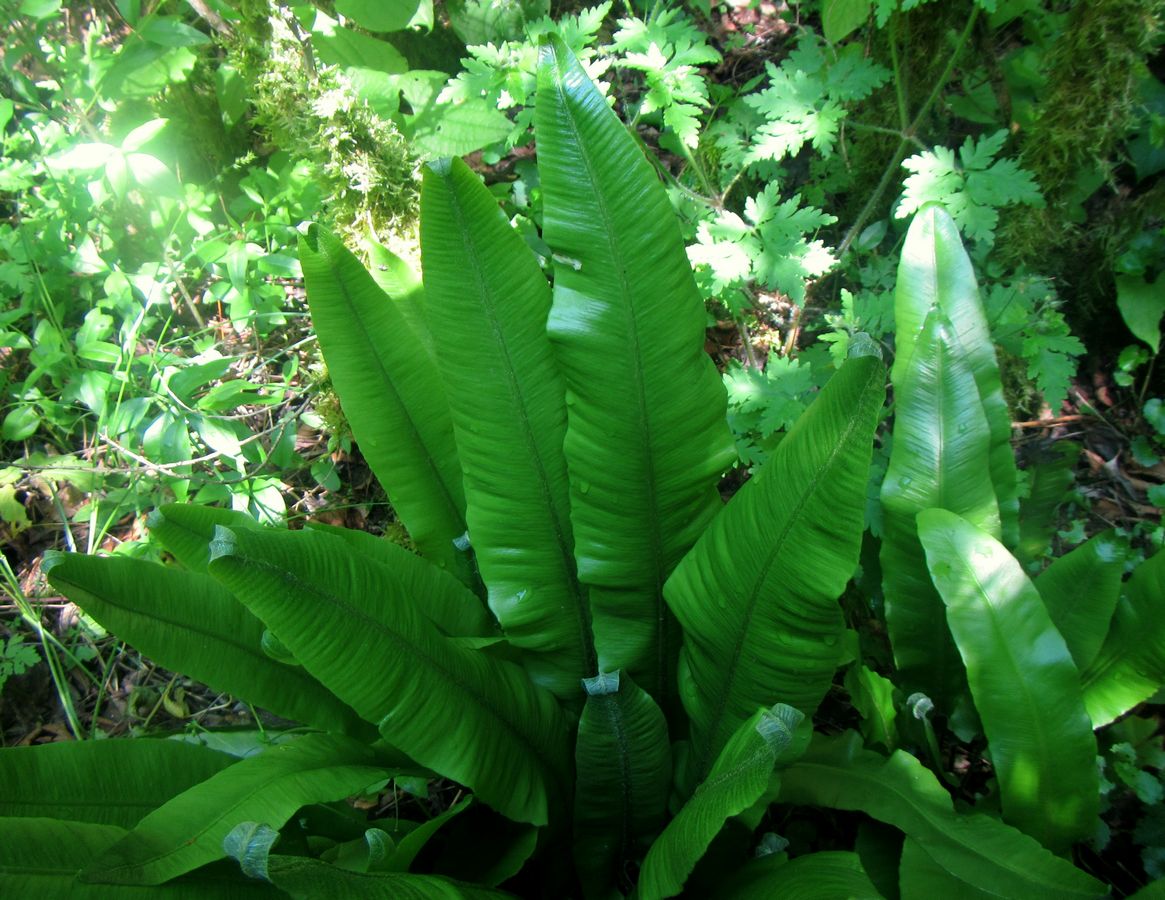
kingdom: Plantae
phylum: Tracheophyta
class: Polypodiopsida
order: Polypodiales
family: Aspleniaceae
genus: Asplenium
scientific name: Asplenium scolopendrium
